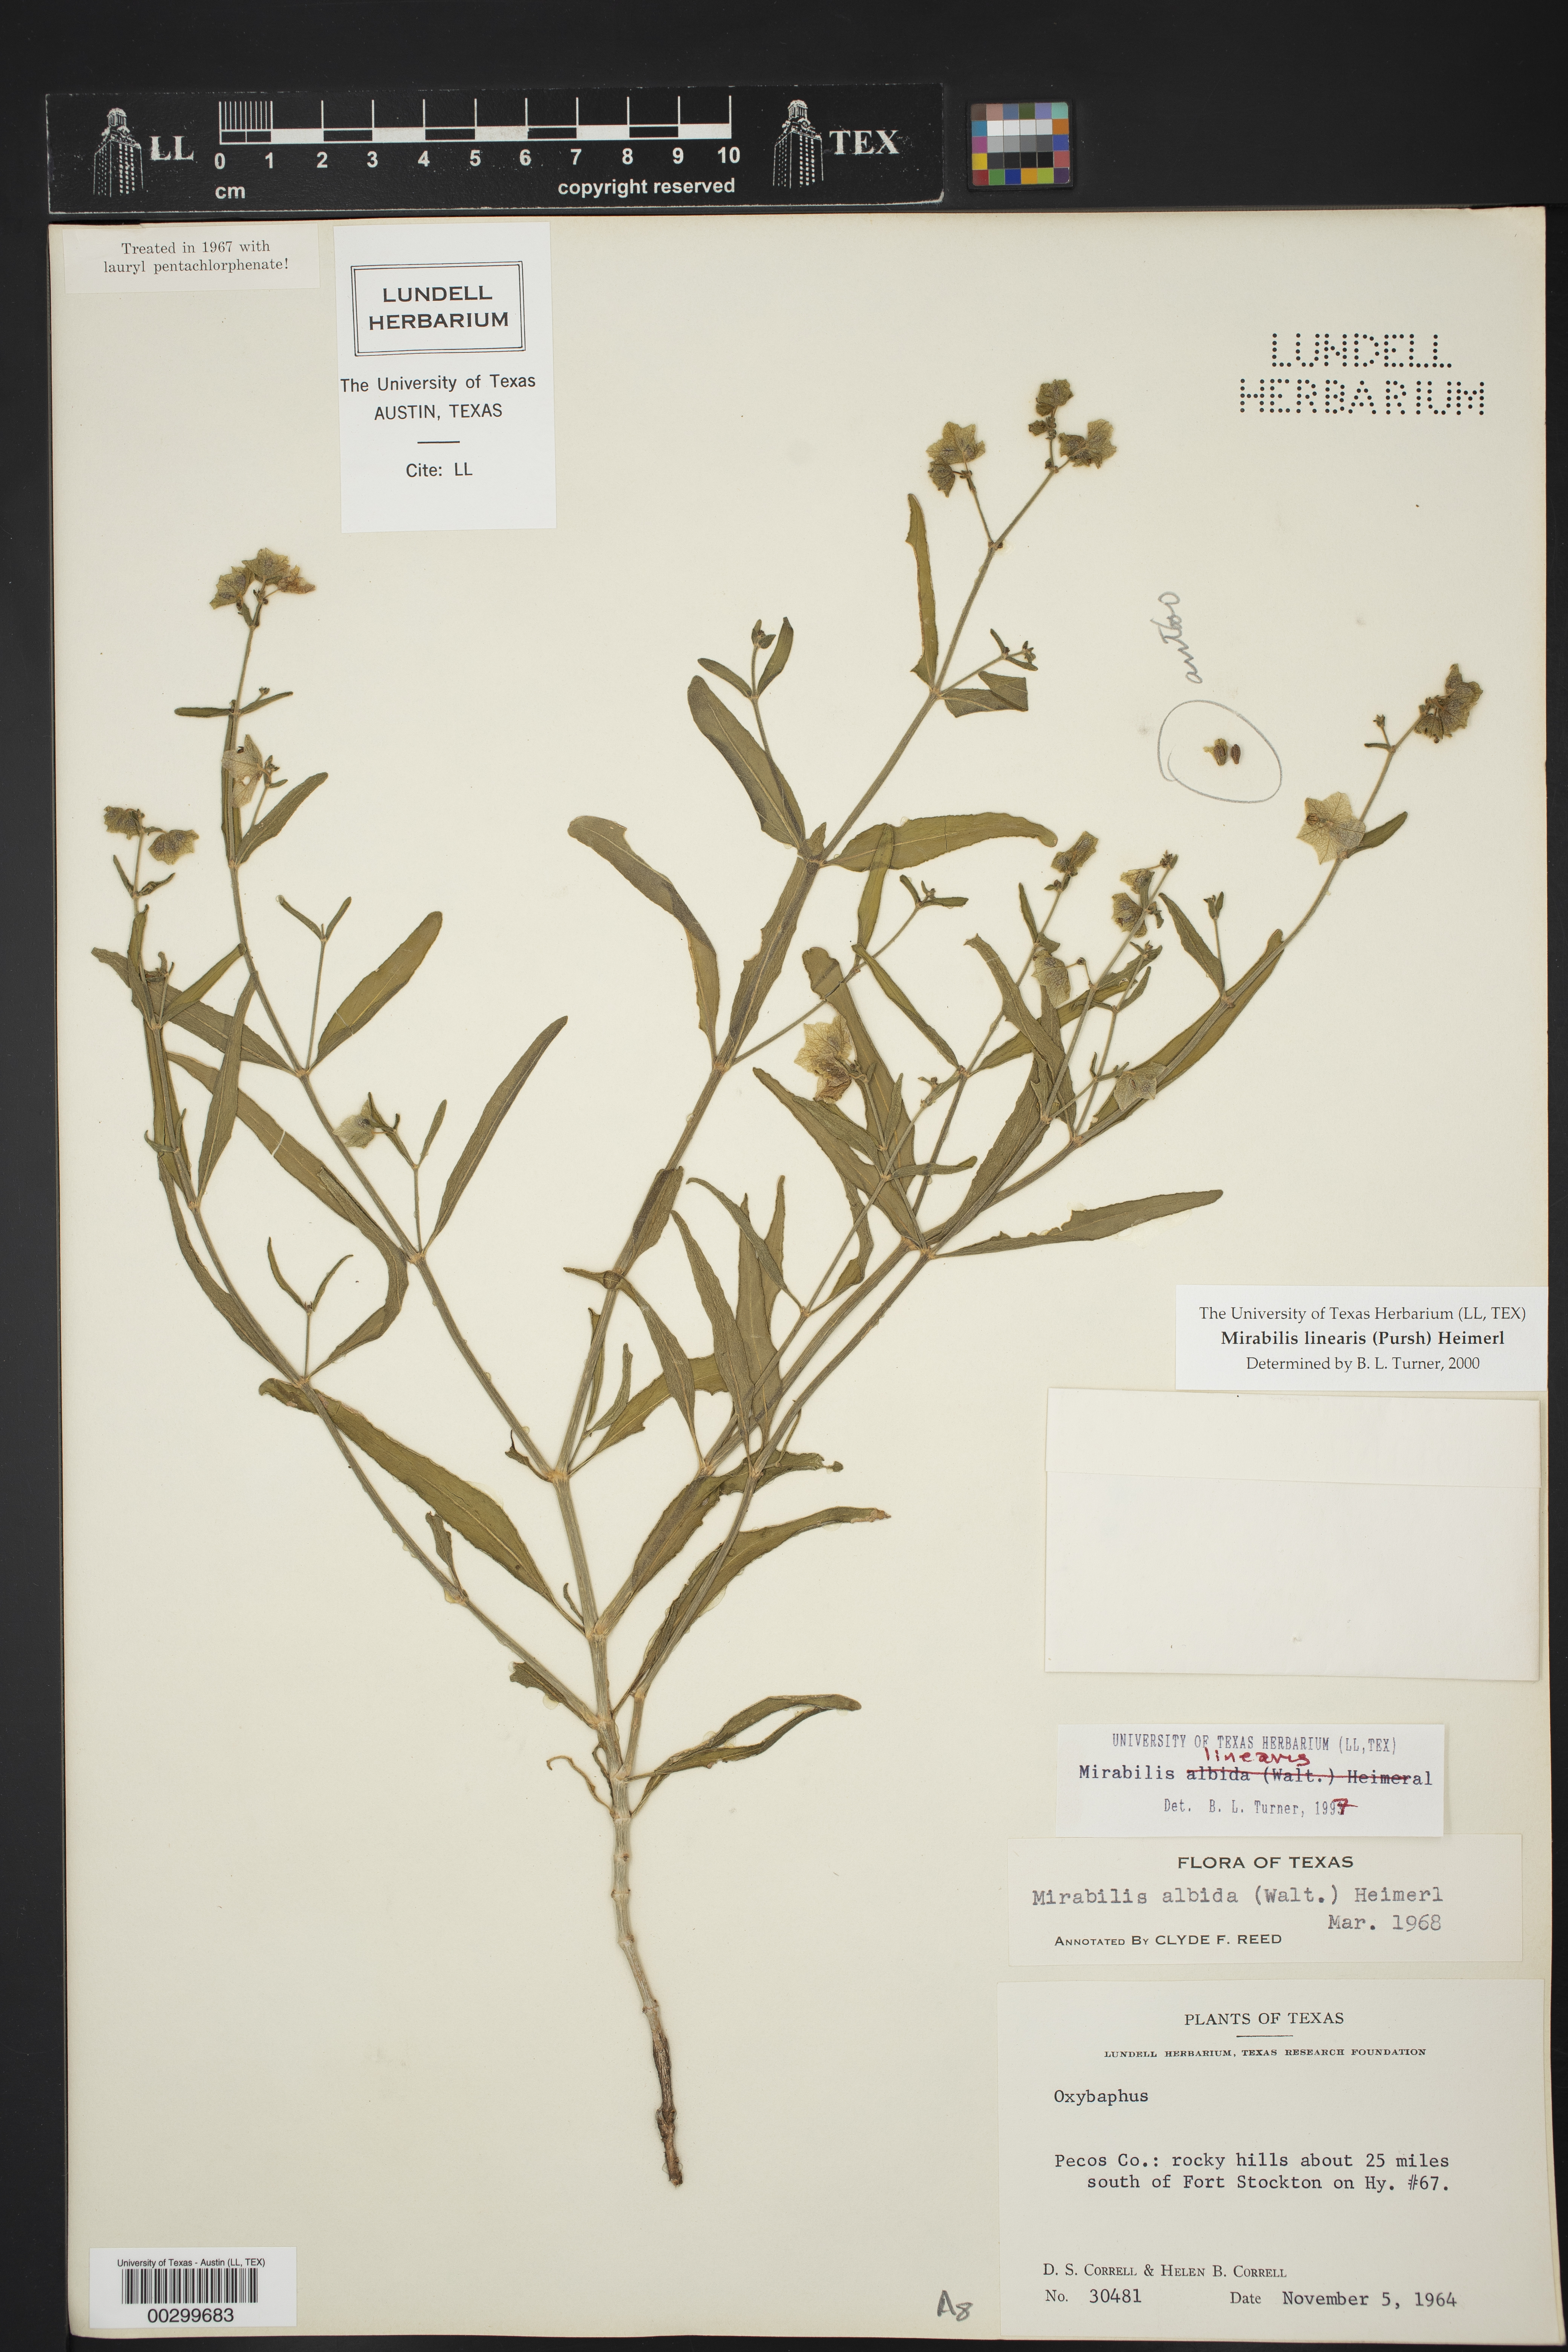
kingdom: Plantae
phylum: Tracheophyta
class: Magnoliopsida
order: Caryophyllales
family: Nyctaginaceae
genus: Mirabilis
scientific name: Mirabilis linearis
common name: Linear-leaved four-o'clock
